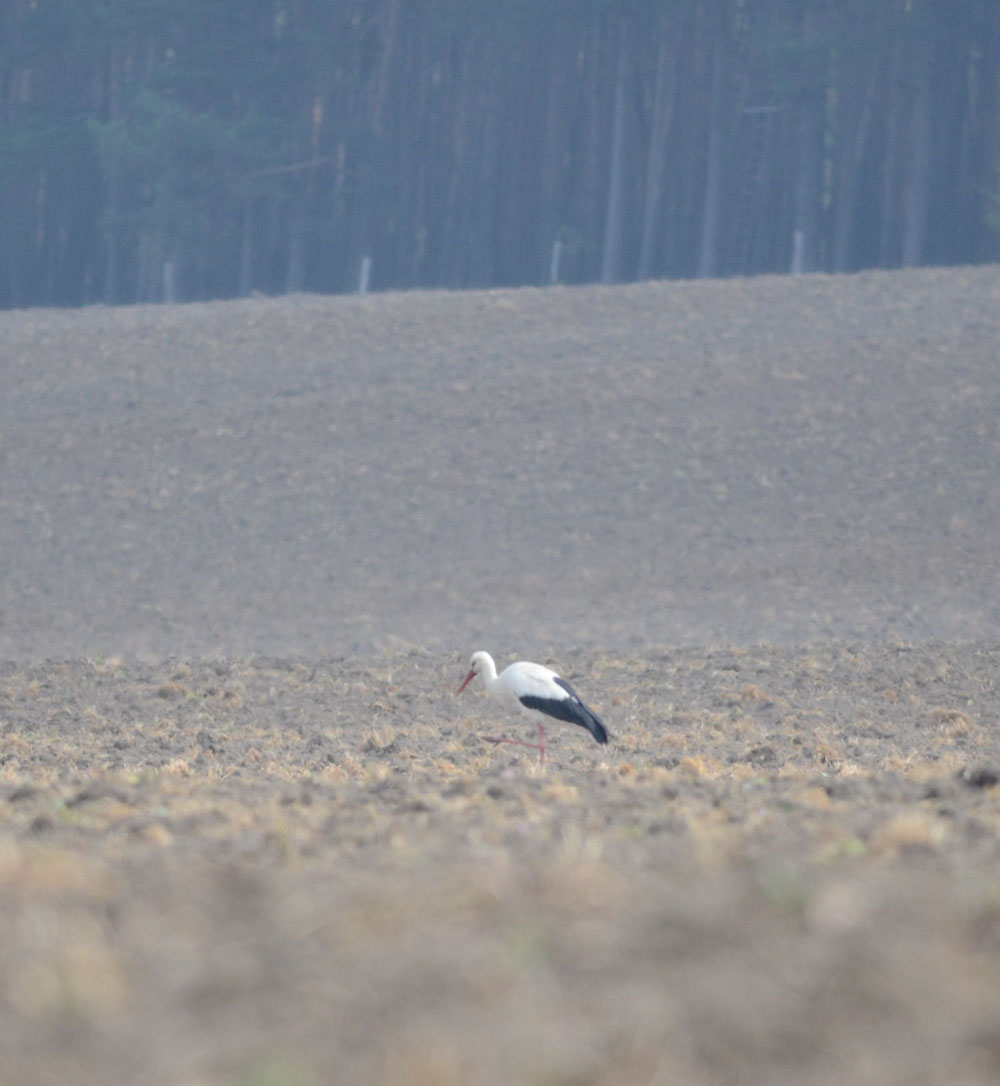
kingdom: Animalia
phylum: Chordata
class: Aves
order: Ciconiiformes
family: Ciconiidae
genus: Ciconia
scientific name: Ciconia ciconia
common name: White stork
